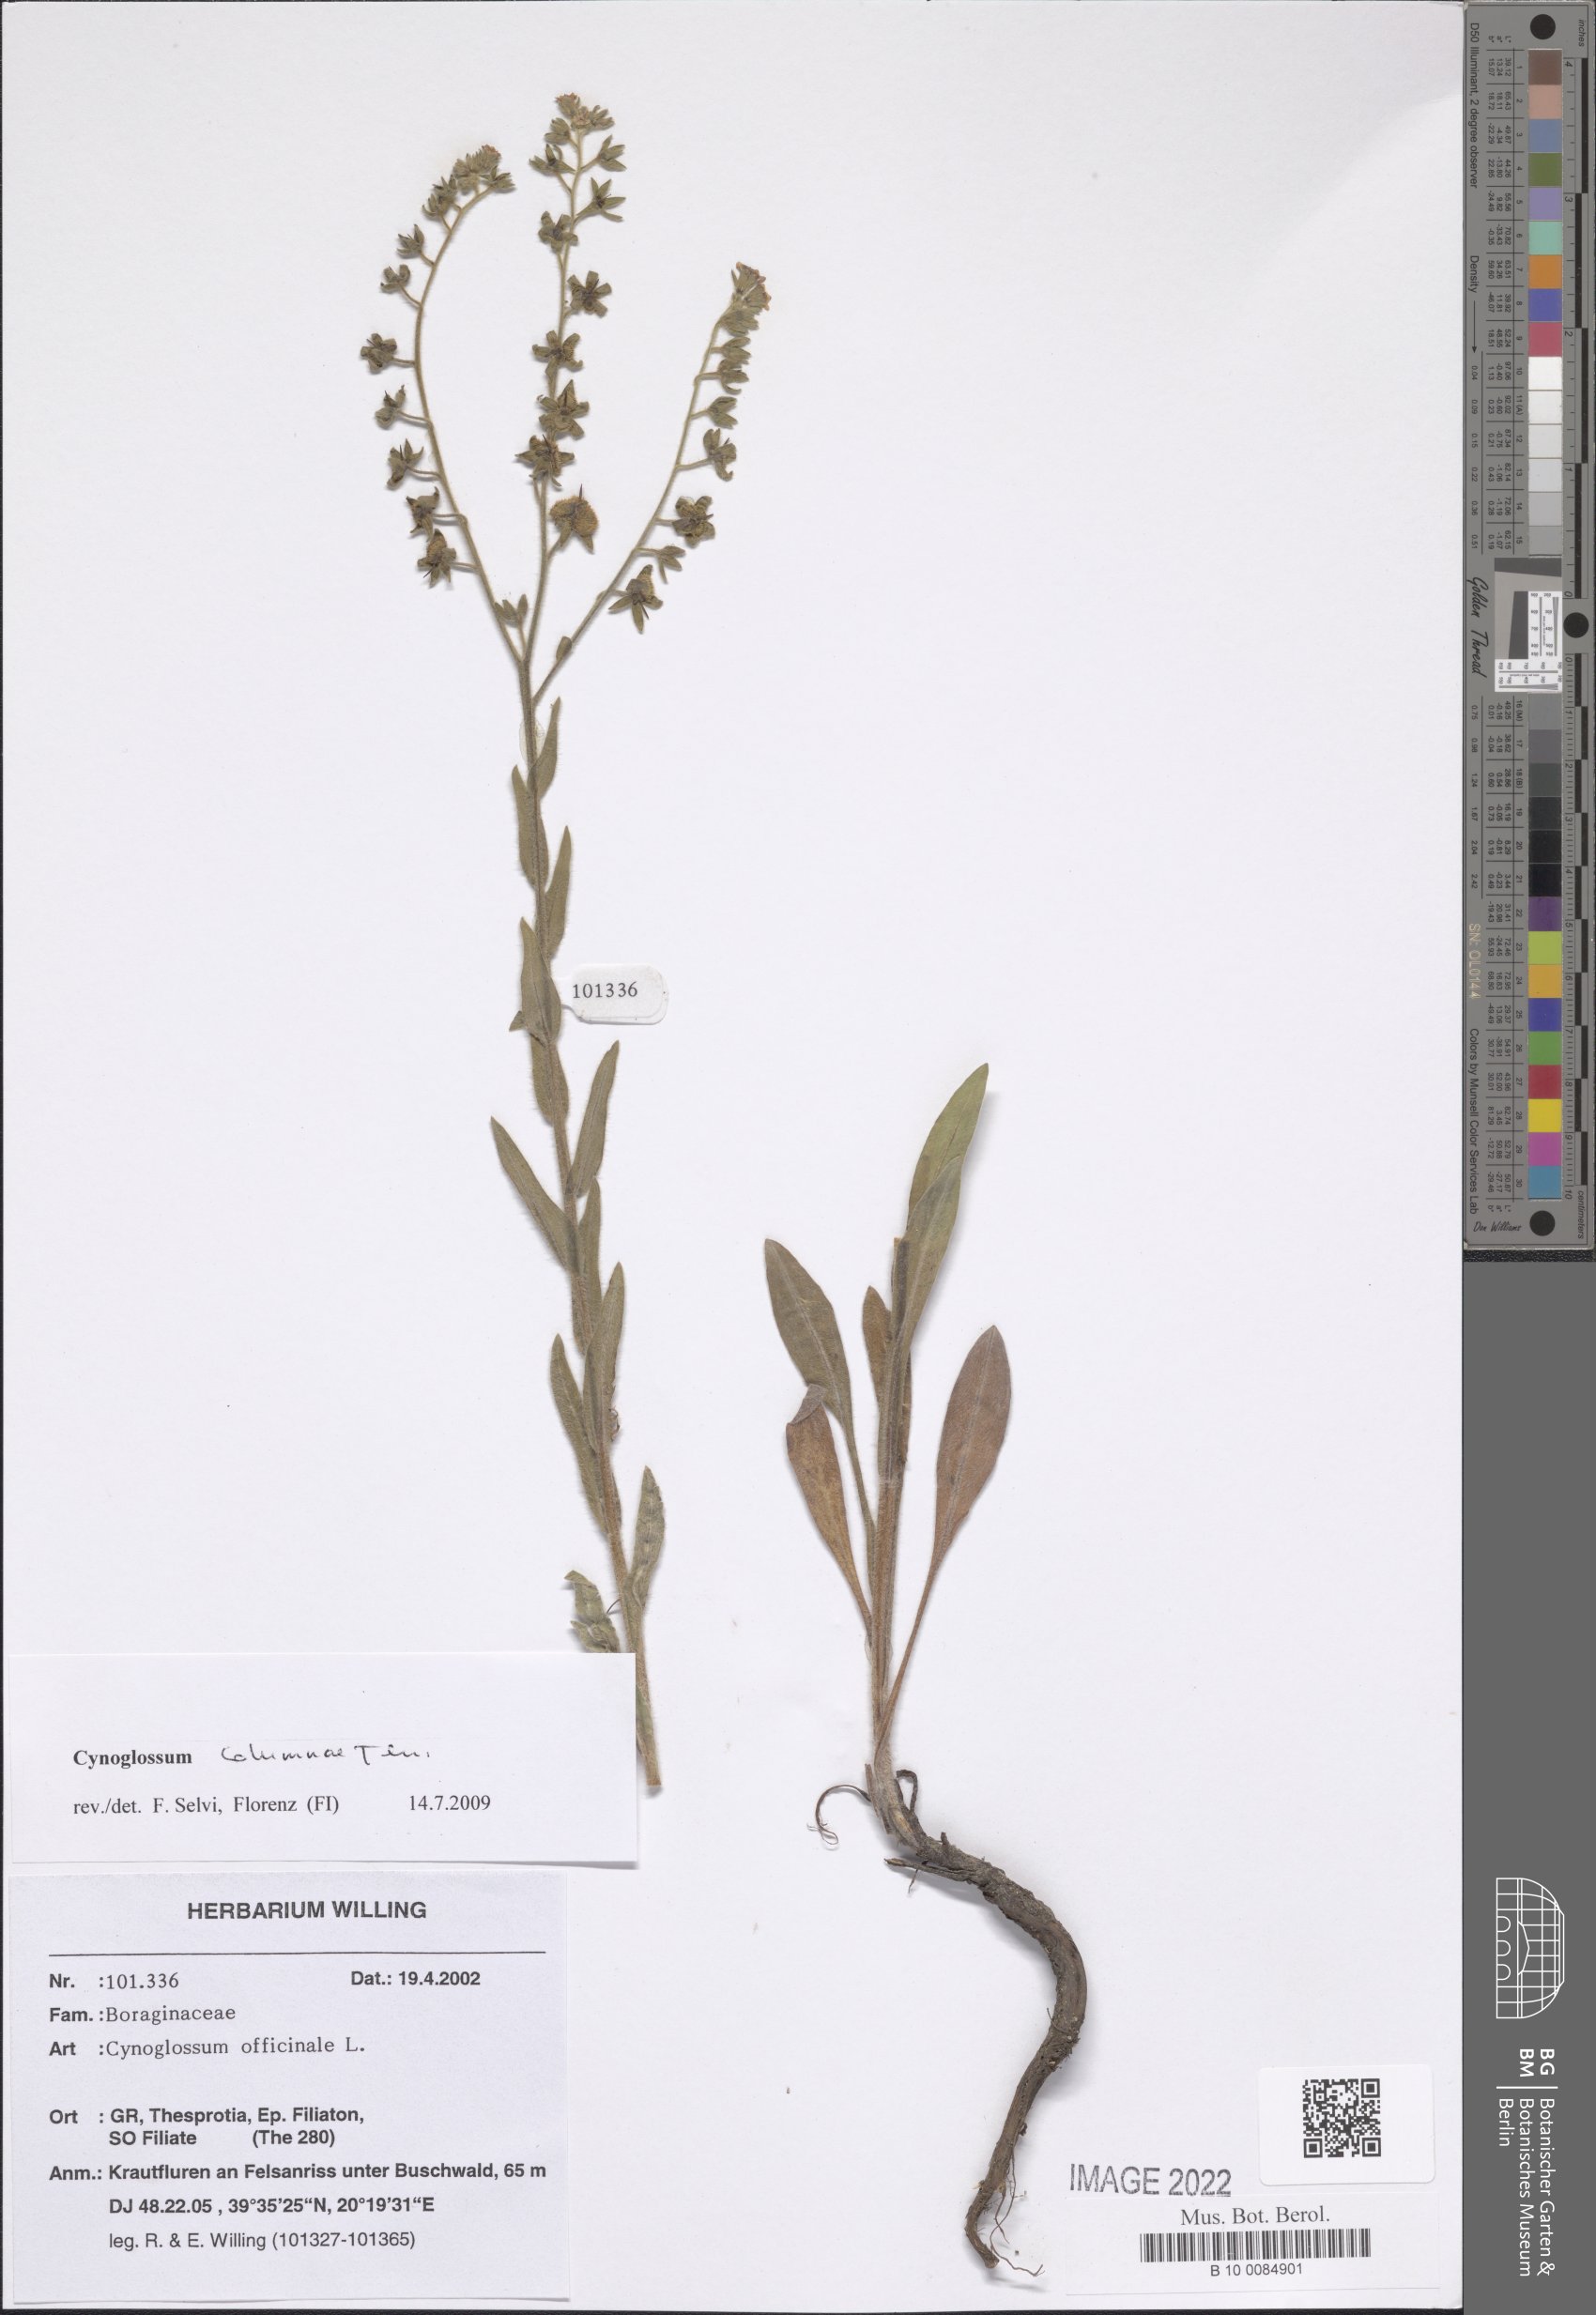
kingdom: Plantae
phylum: Tracheophyta
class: Magnoliopsida
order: Boraginales
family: Boraginaceae
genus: Rindera
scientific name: Rindera columnae
